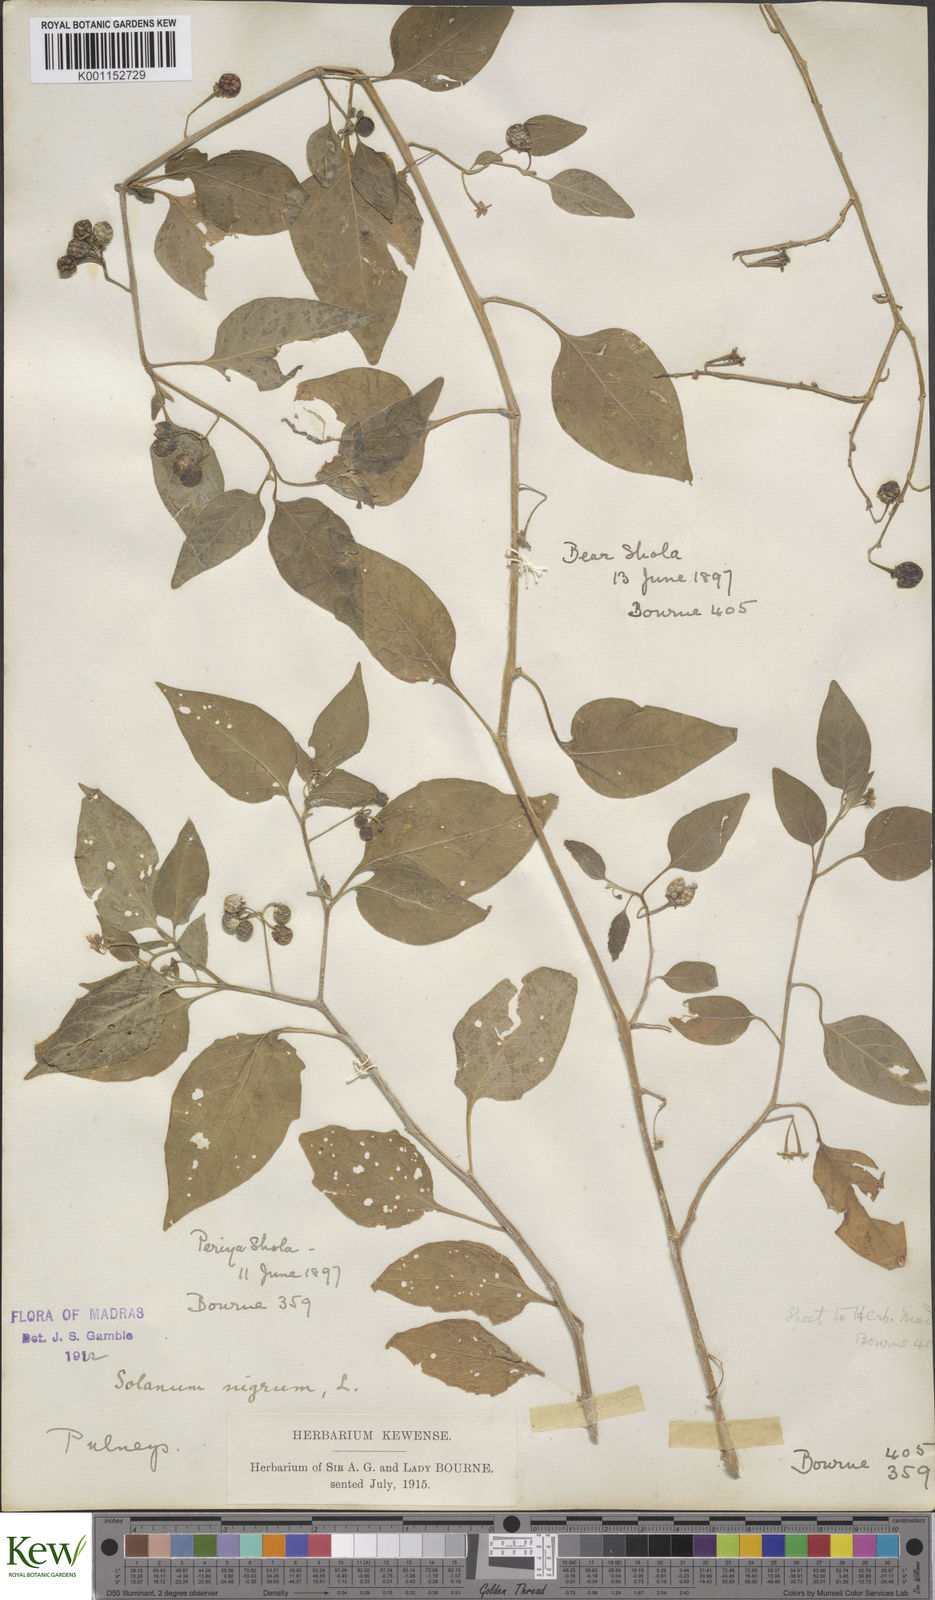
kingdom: Plantae
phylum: Tracheophyta
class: Magnoliopsida
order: Solanales
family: Solanaceae
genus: Solanum
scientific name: Solanum nigrum
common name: Black nightshade
